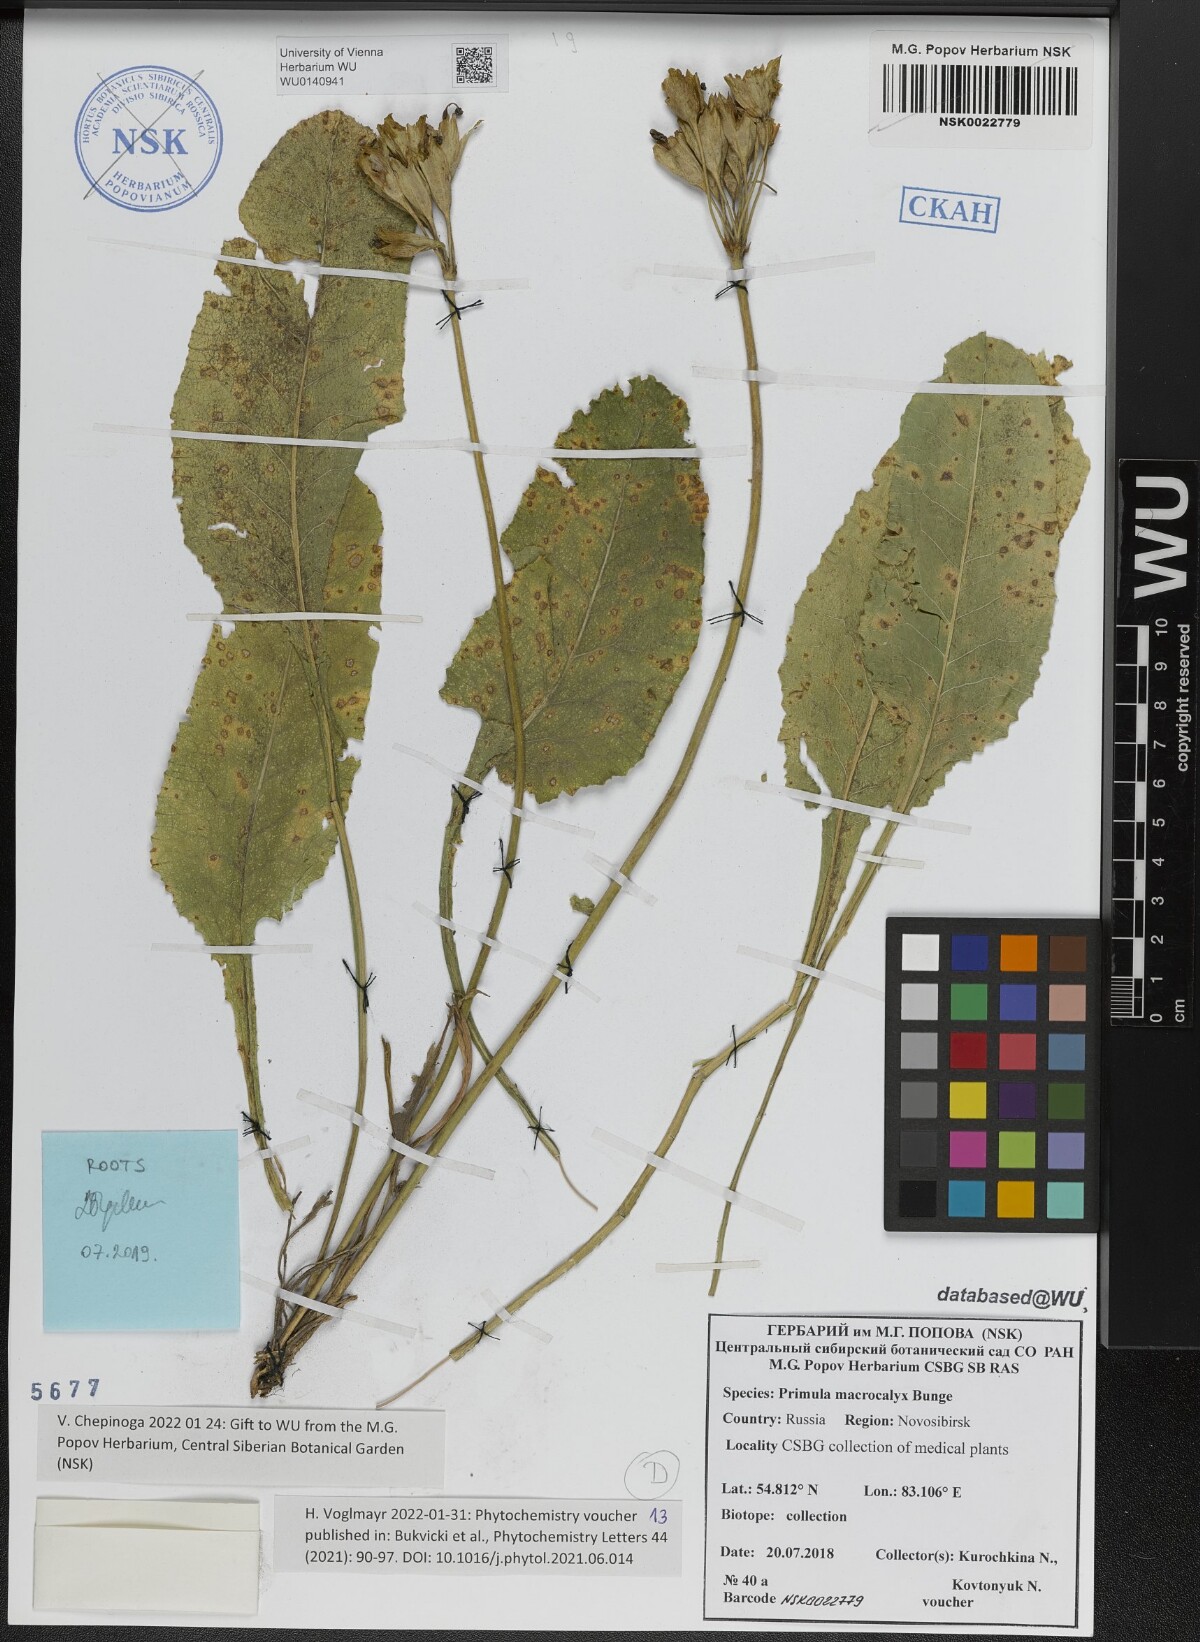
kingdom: Plantae
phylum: Tracheophyta
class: Magnoliopsida
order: Ericales
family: Primulaceae
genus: Primula
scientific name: Primula veris
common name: Cowslip
